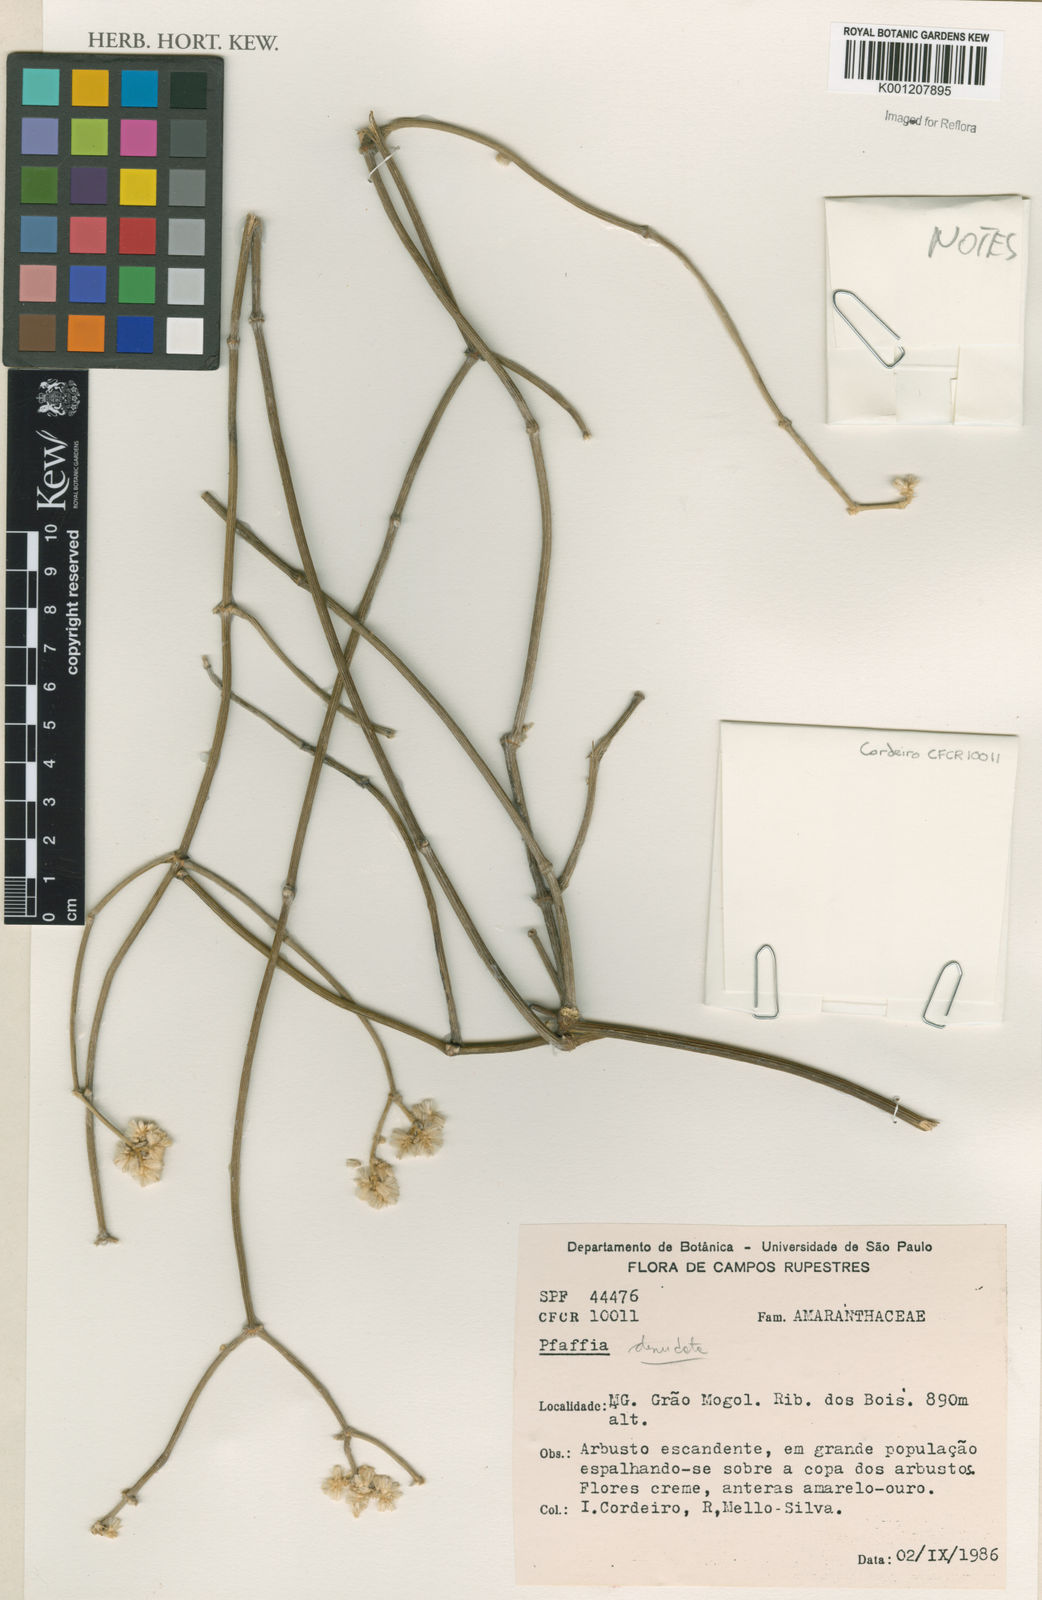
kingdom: Plantae
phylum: Tracheophyta
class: Magnoliopsida
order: Caryophyllales
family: Amaranthaceae
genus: Pfaffia
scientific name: Pfaffia denudata
